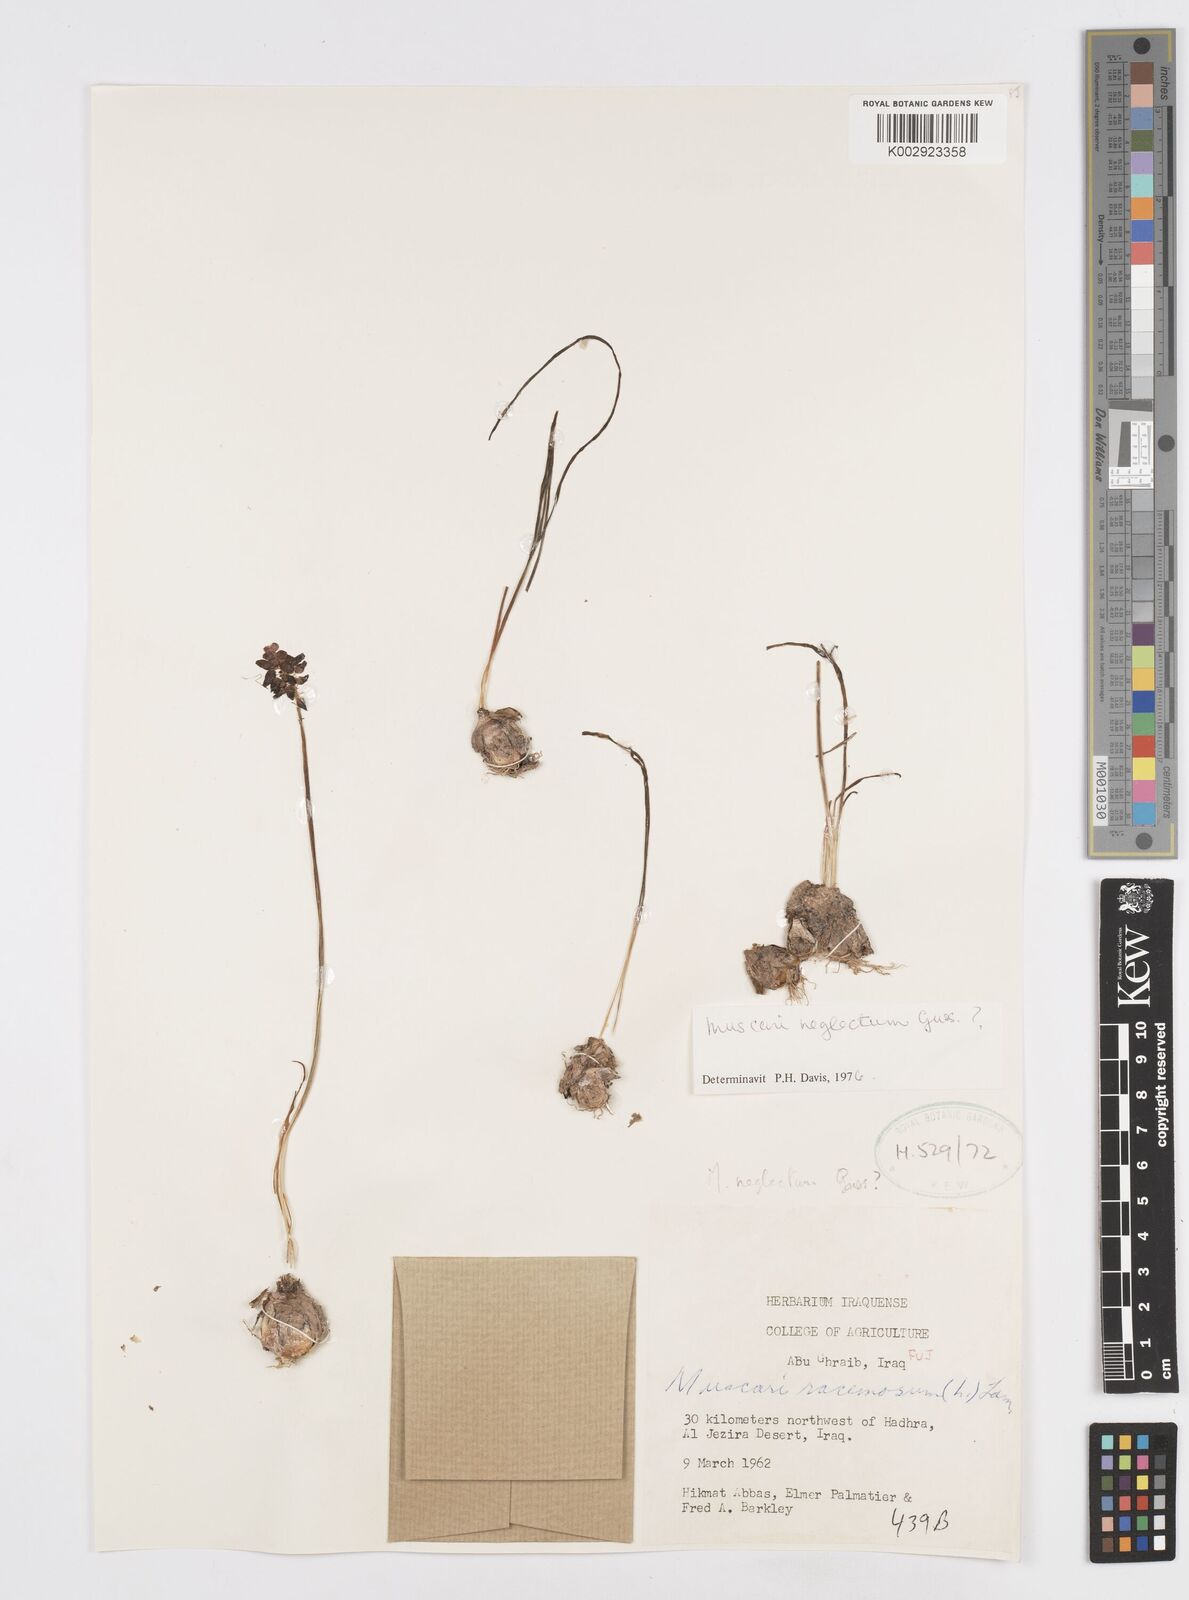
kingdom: Plantae
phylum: Tracheophyta
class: Liliopsida
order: Asparagales
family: Asparagaceae
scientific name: Asparagaceae
